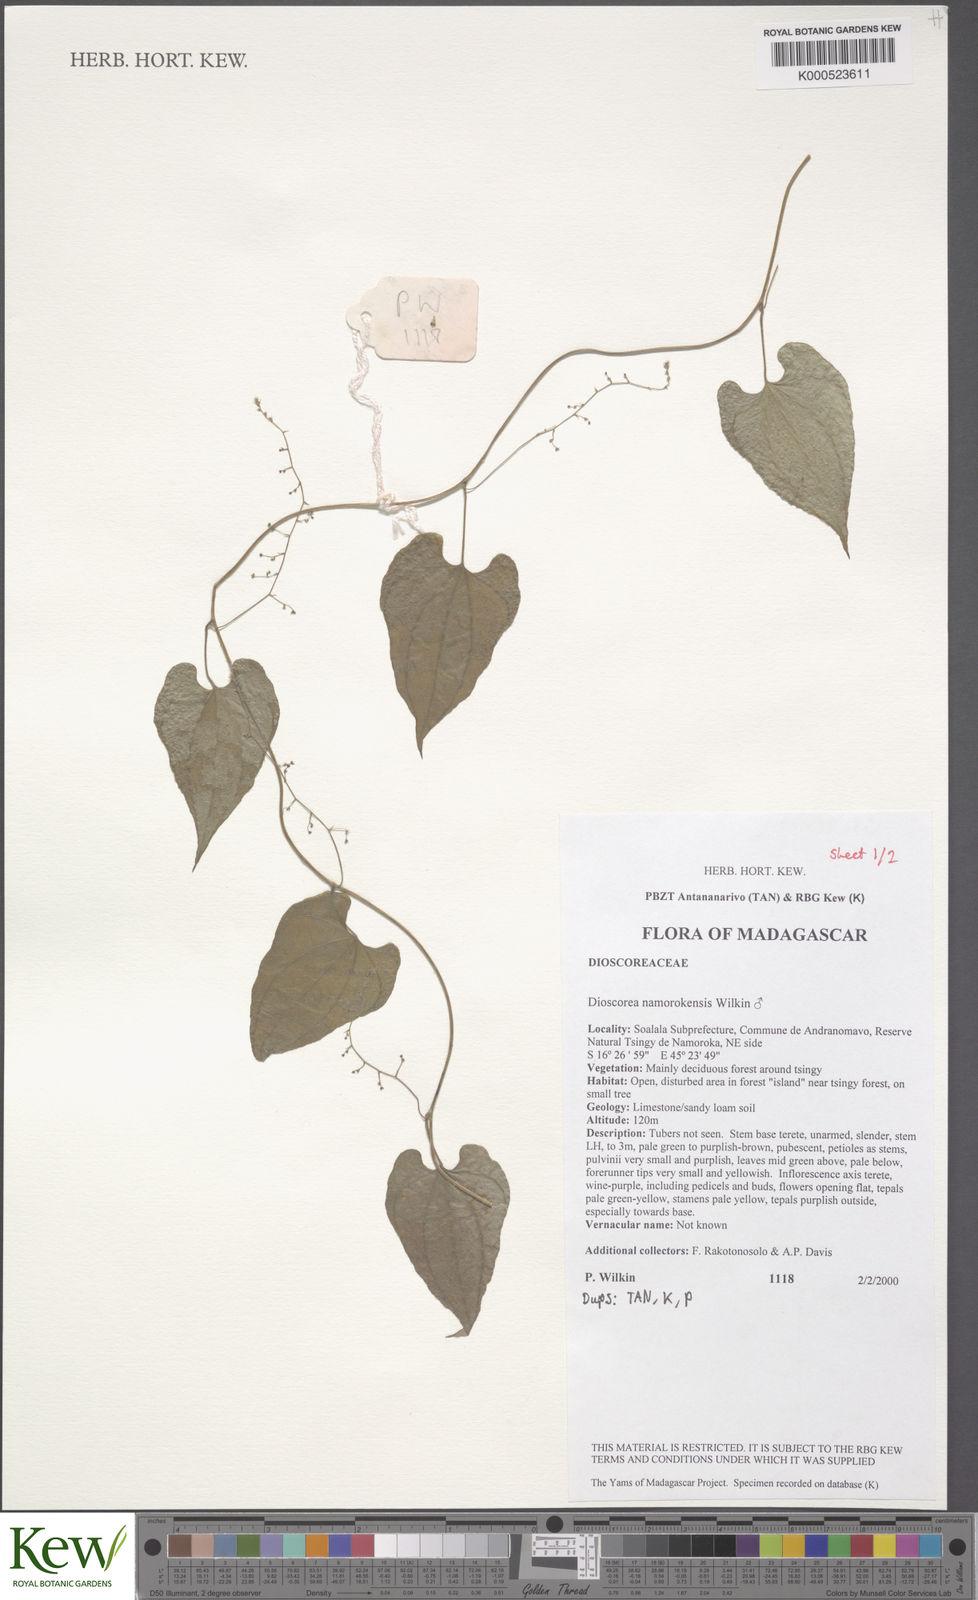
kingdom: Plantae
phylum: Tracheophyta
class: Liliopsida
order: Dioscoreales
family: Dioscoreaceae
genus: Dioscorea
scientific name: Dioscorea namorokensis
